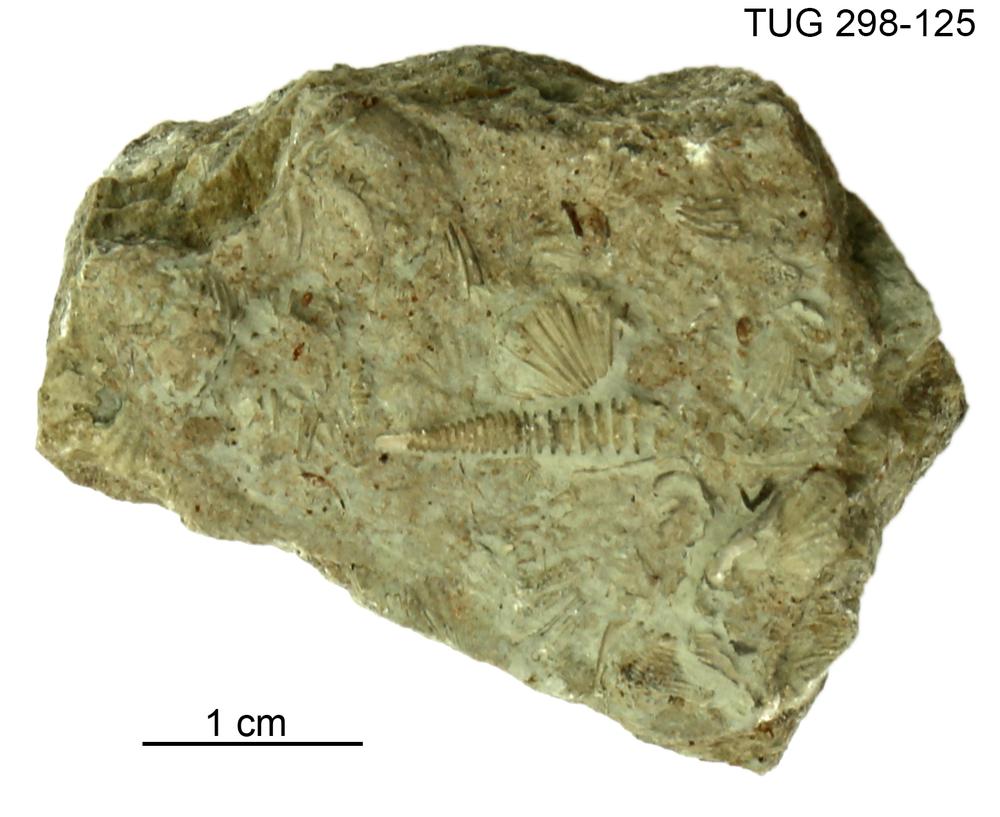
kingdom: Animalia
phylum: Mollusca
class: Cricoconarida
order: Tentaculitida
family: Tentaculitidae
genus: Tentaculites
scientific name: Tentaculites
